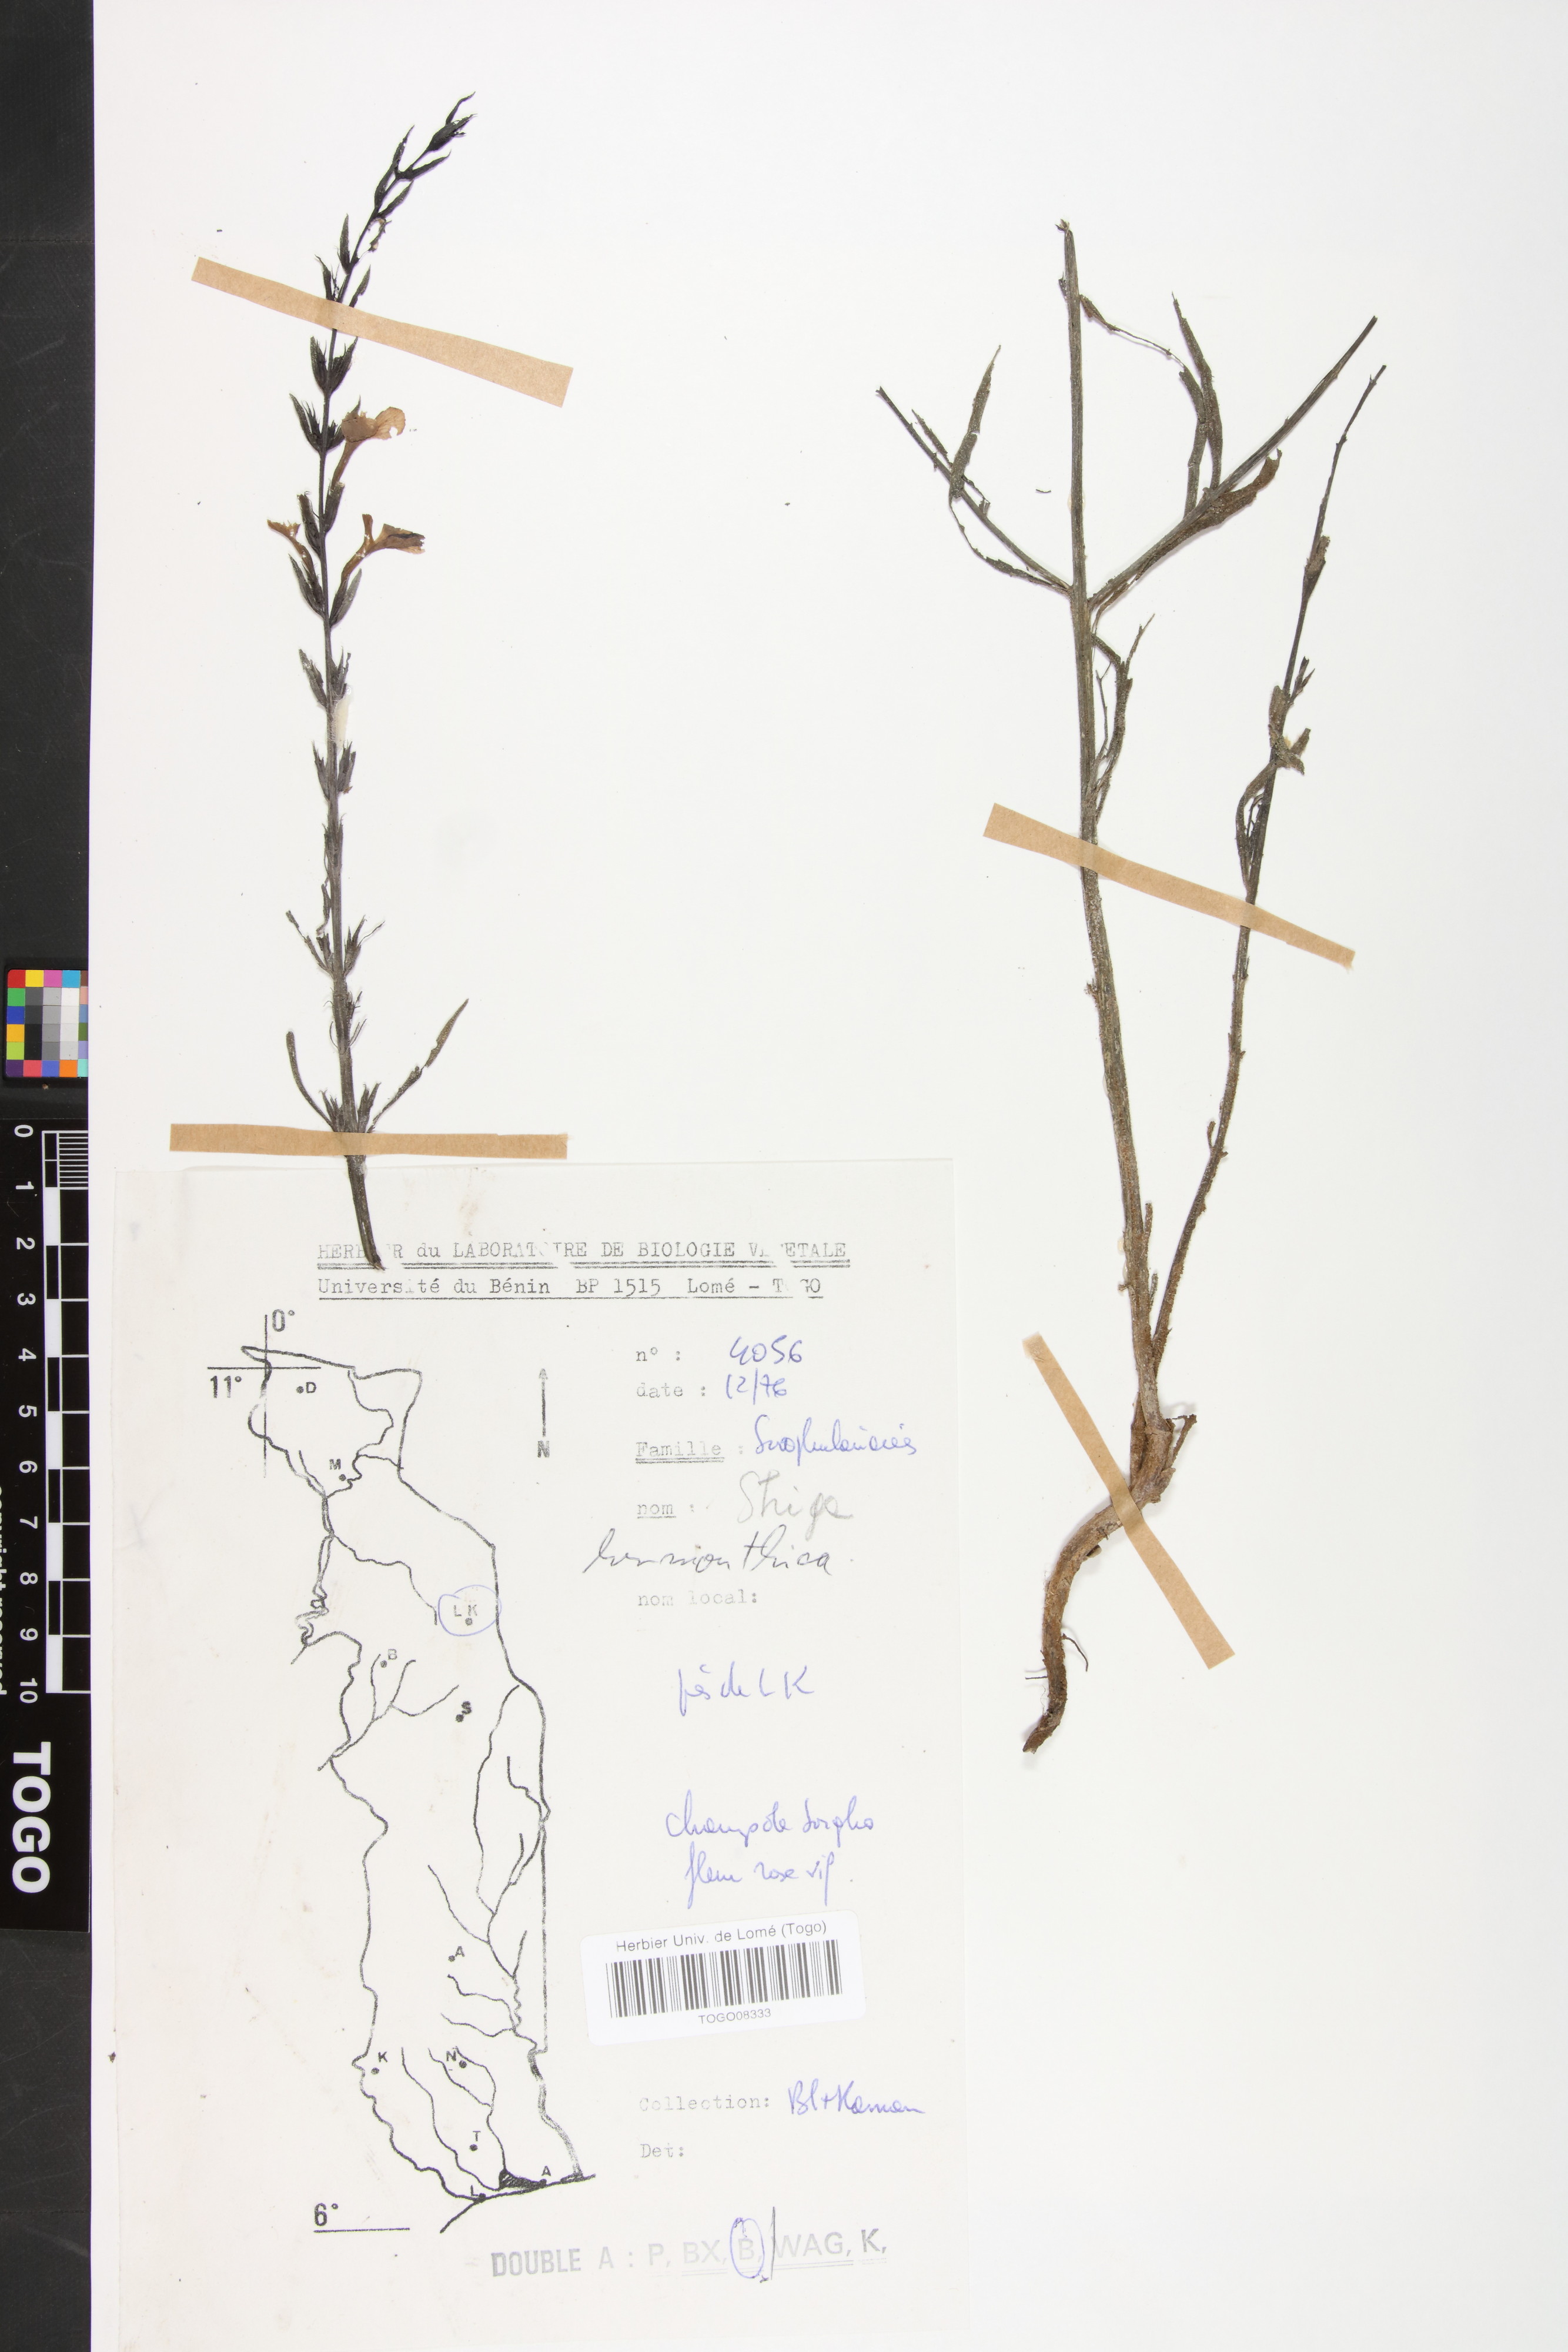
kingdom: Plantae
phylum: Tracheophyta
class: Magnoliopsida
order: Lamiales
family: Orobanchaceae
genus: Striga
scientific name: Striga hermonthica
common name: Purple witchweed
